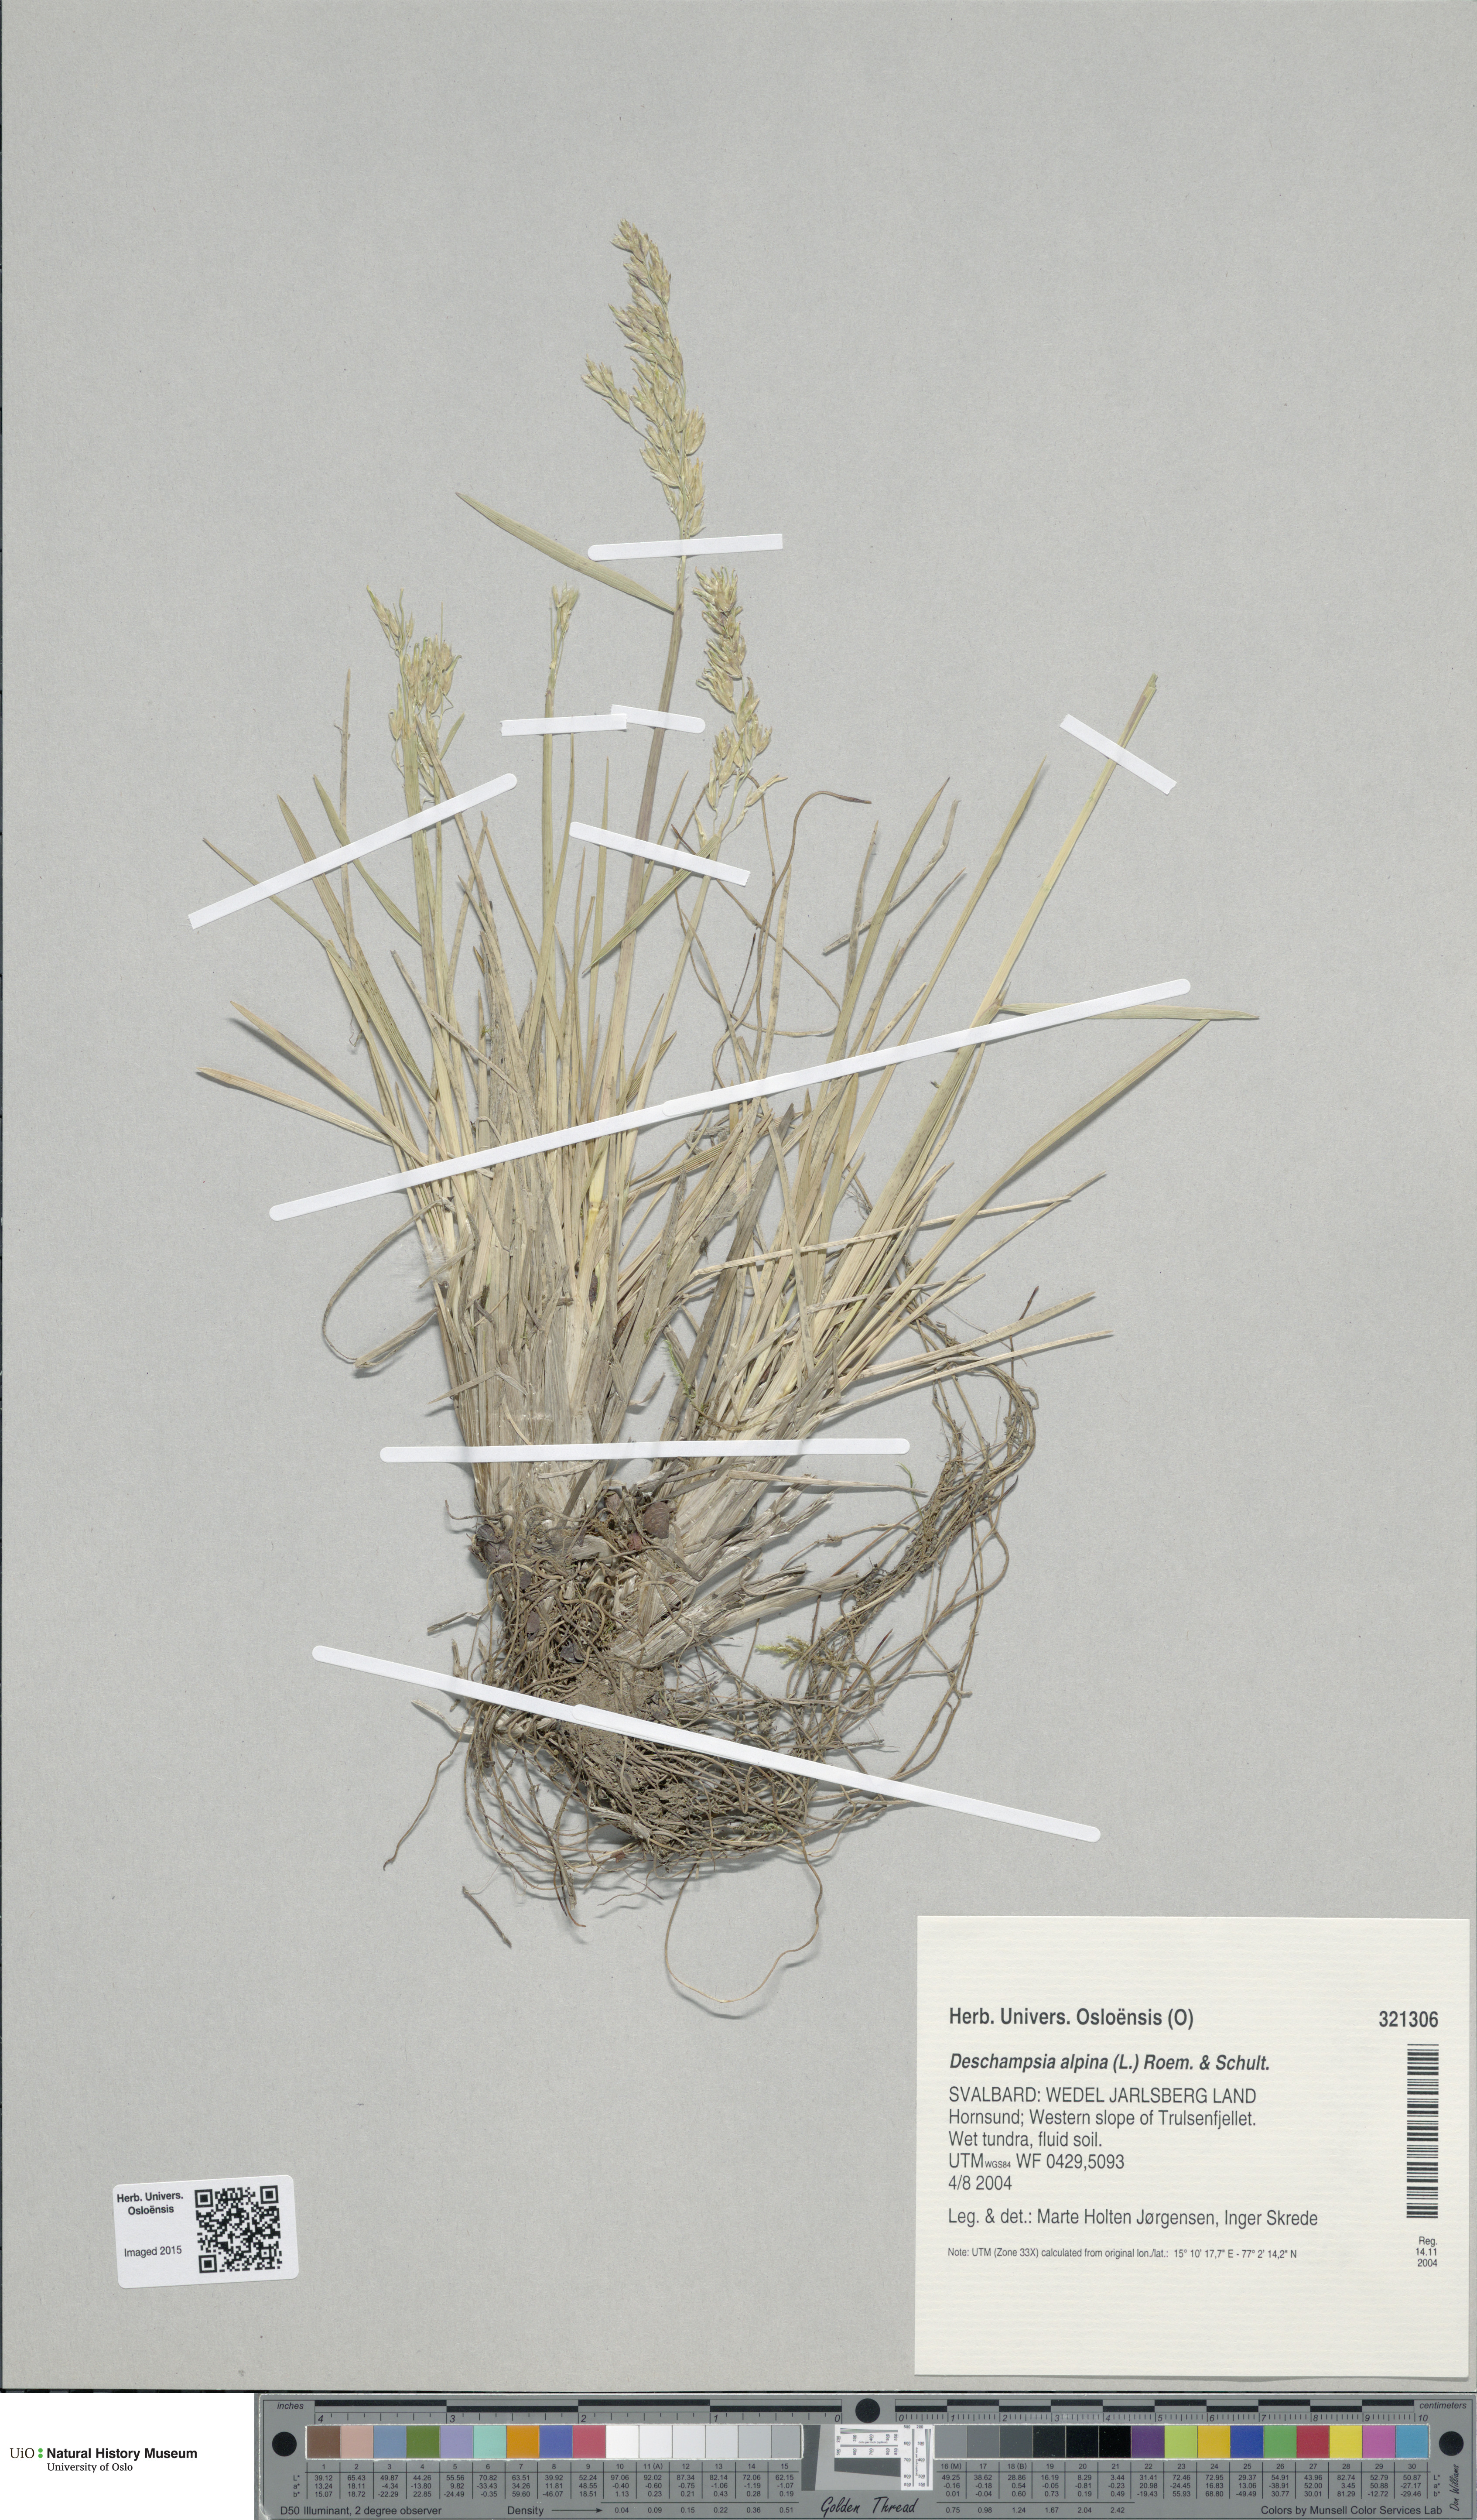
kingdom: Plantae
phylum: Tracheophyta
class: Liliopsida
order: Poales
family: Poaceae
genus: Deschampsia
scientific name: Deschampsia cespitosa
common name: Tufted hair-grass
